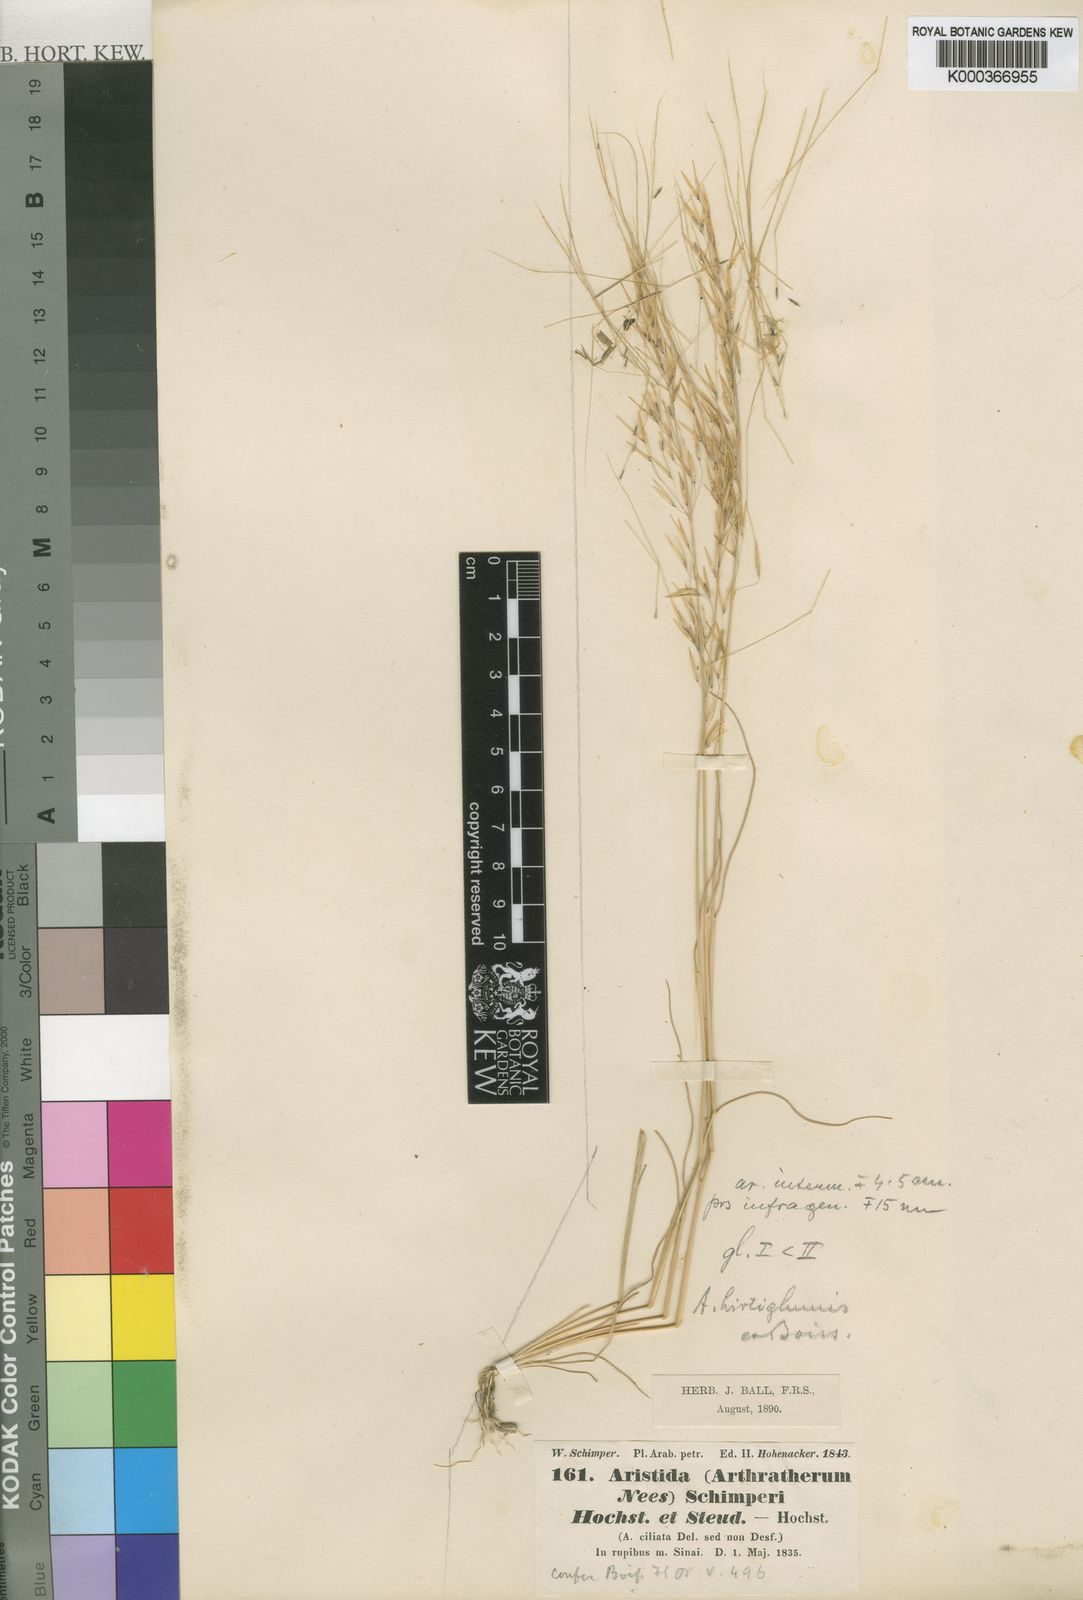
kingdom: Plantae
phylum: Tracheophyta
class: Liliopsida
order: Poales
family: Poaceae
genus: Stipagrostis
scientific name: Stipagrostis ciliata
